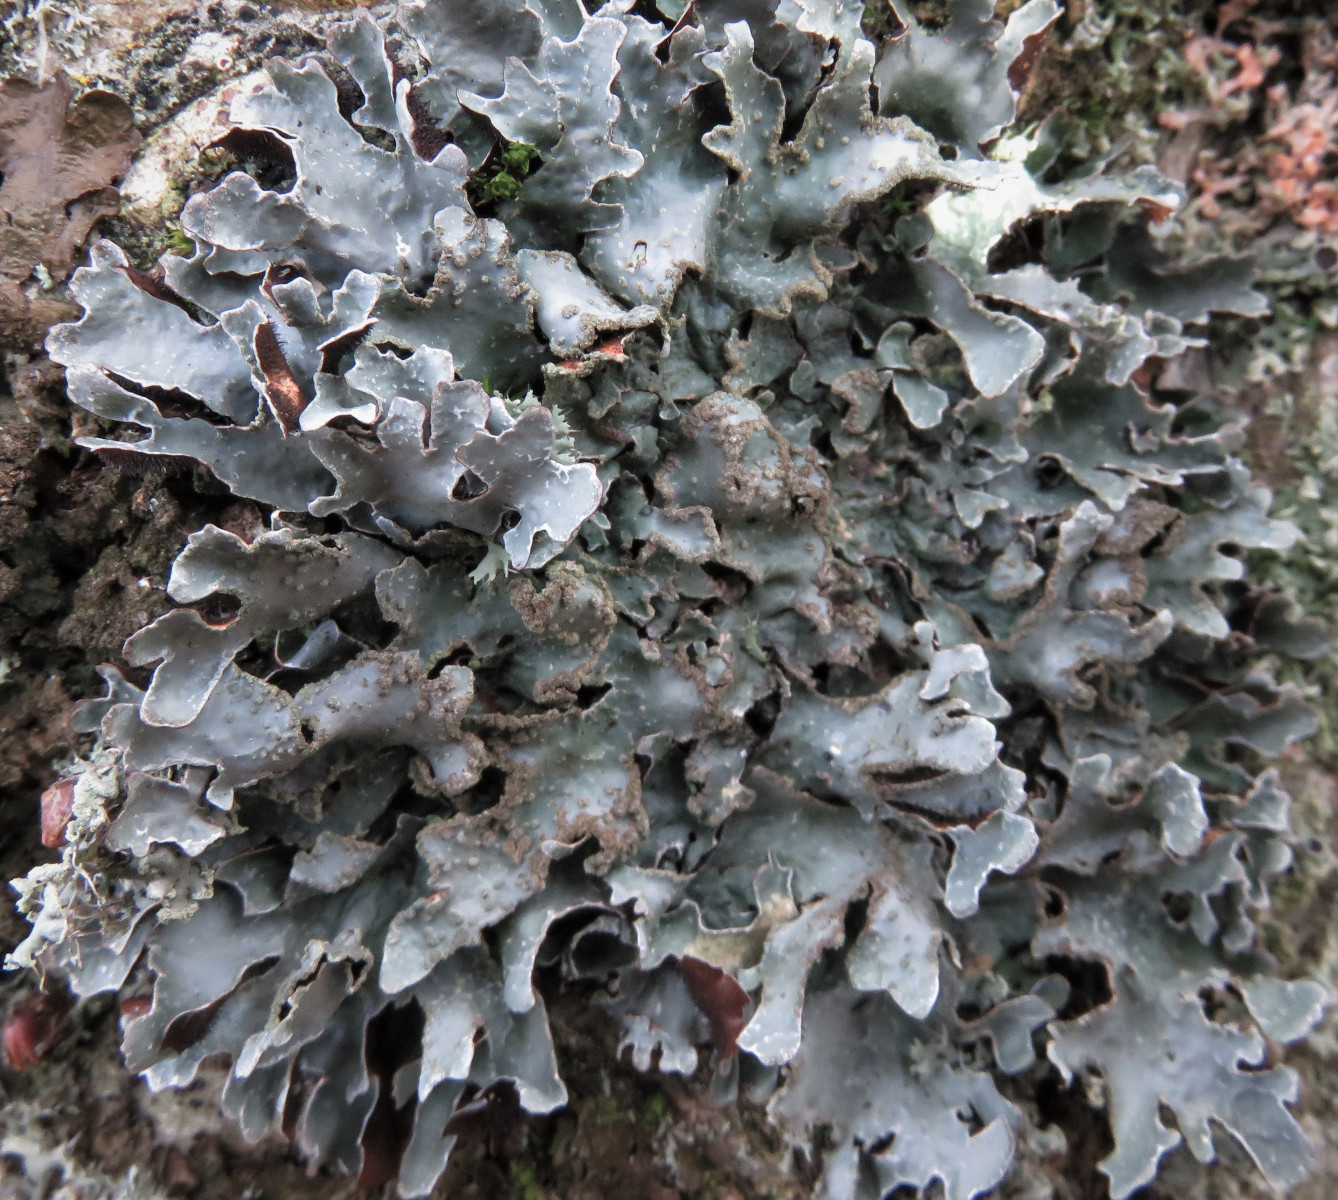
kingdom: Fungi
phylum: Ascomycota
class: Lecanoromycetes
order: Lecanorales
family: Parmeliaceae
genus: Parmelia
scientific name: Parmelia sulcata
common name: rynket skållav
